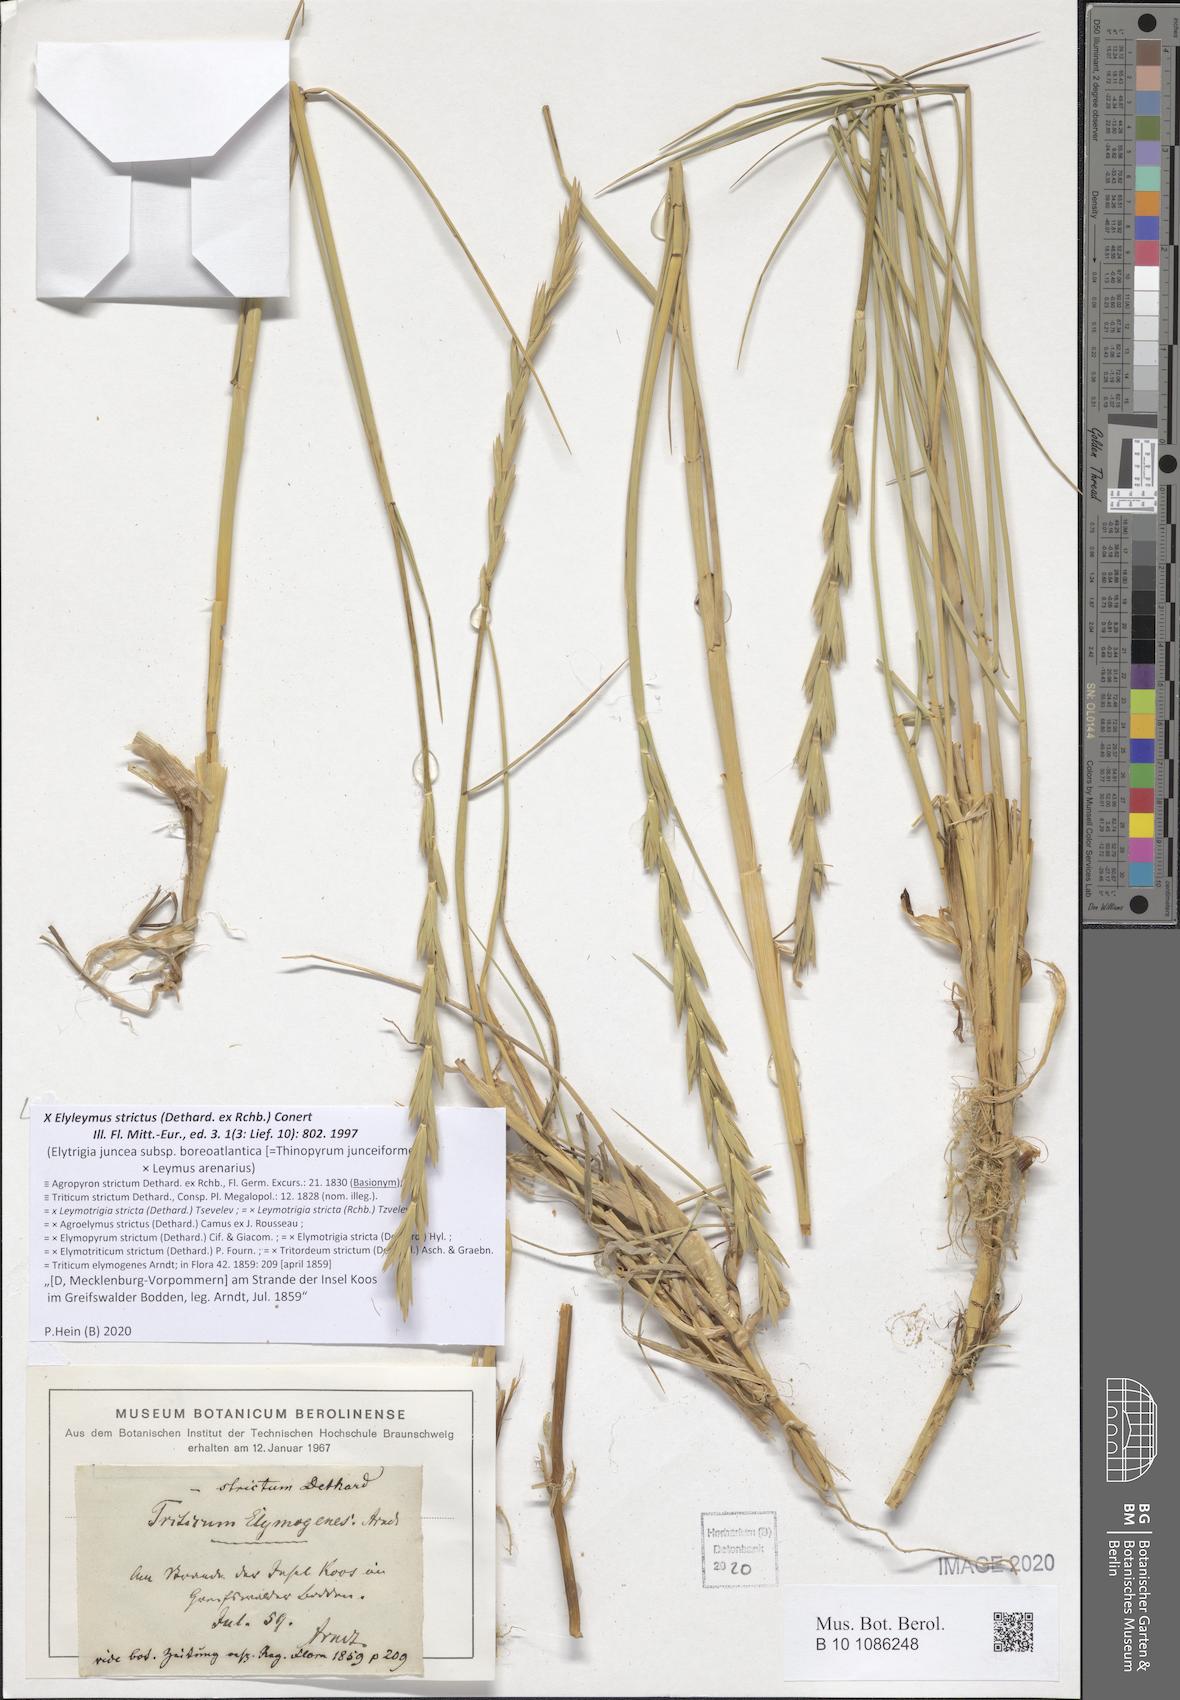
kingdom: Plantae
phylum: Tracheophyta
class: Liliopsida
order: Poales
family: Poaceae
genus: Elyleymus
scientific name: Elyleymus strictus
